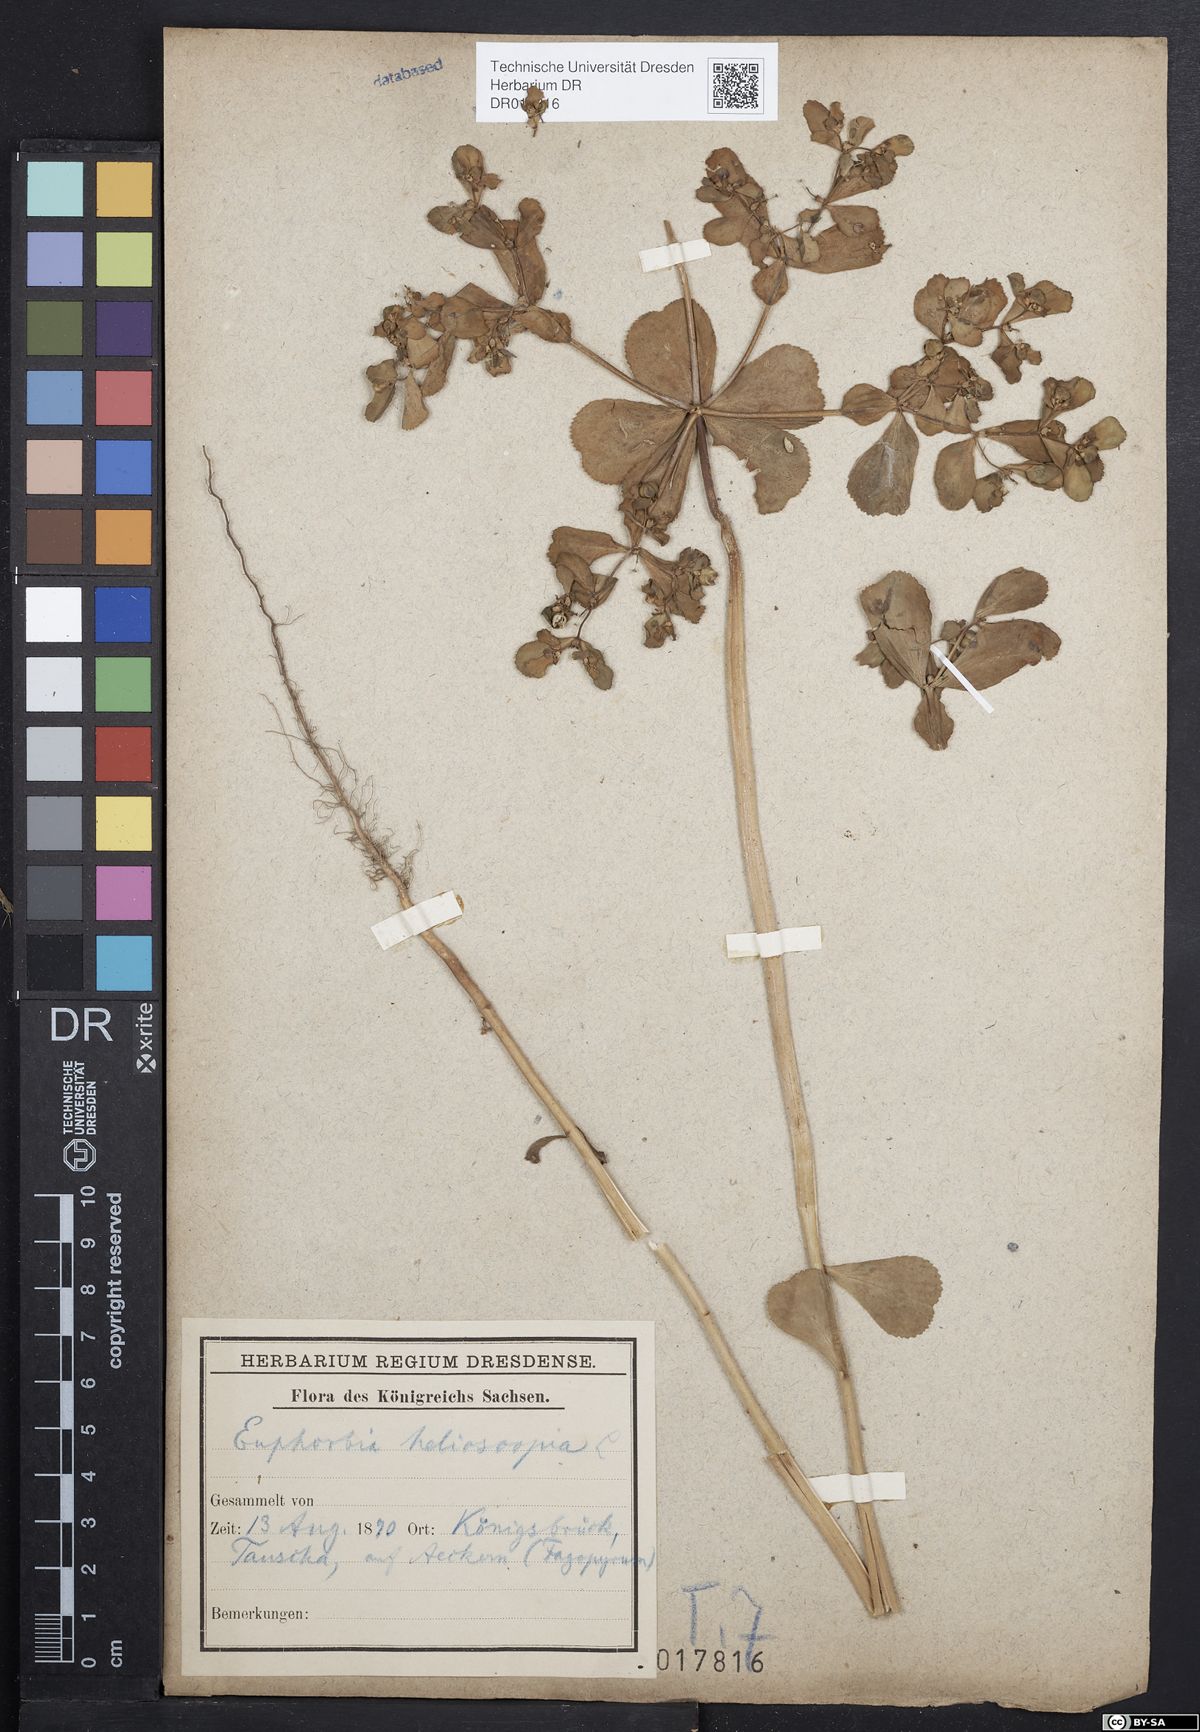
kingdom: Plantae
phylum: Tracheophyta
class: Magnoliopsida
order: Malpighiales
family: Euphorbiaceae
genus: Euphorbia
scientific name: Euphorbia helioscopia
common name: Sun spurge
